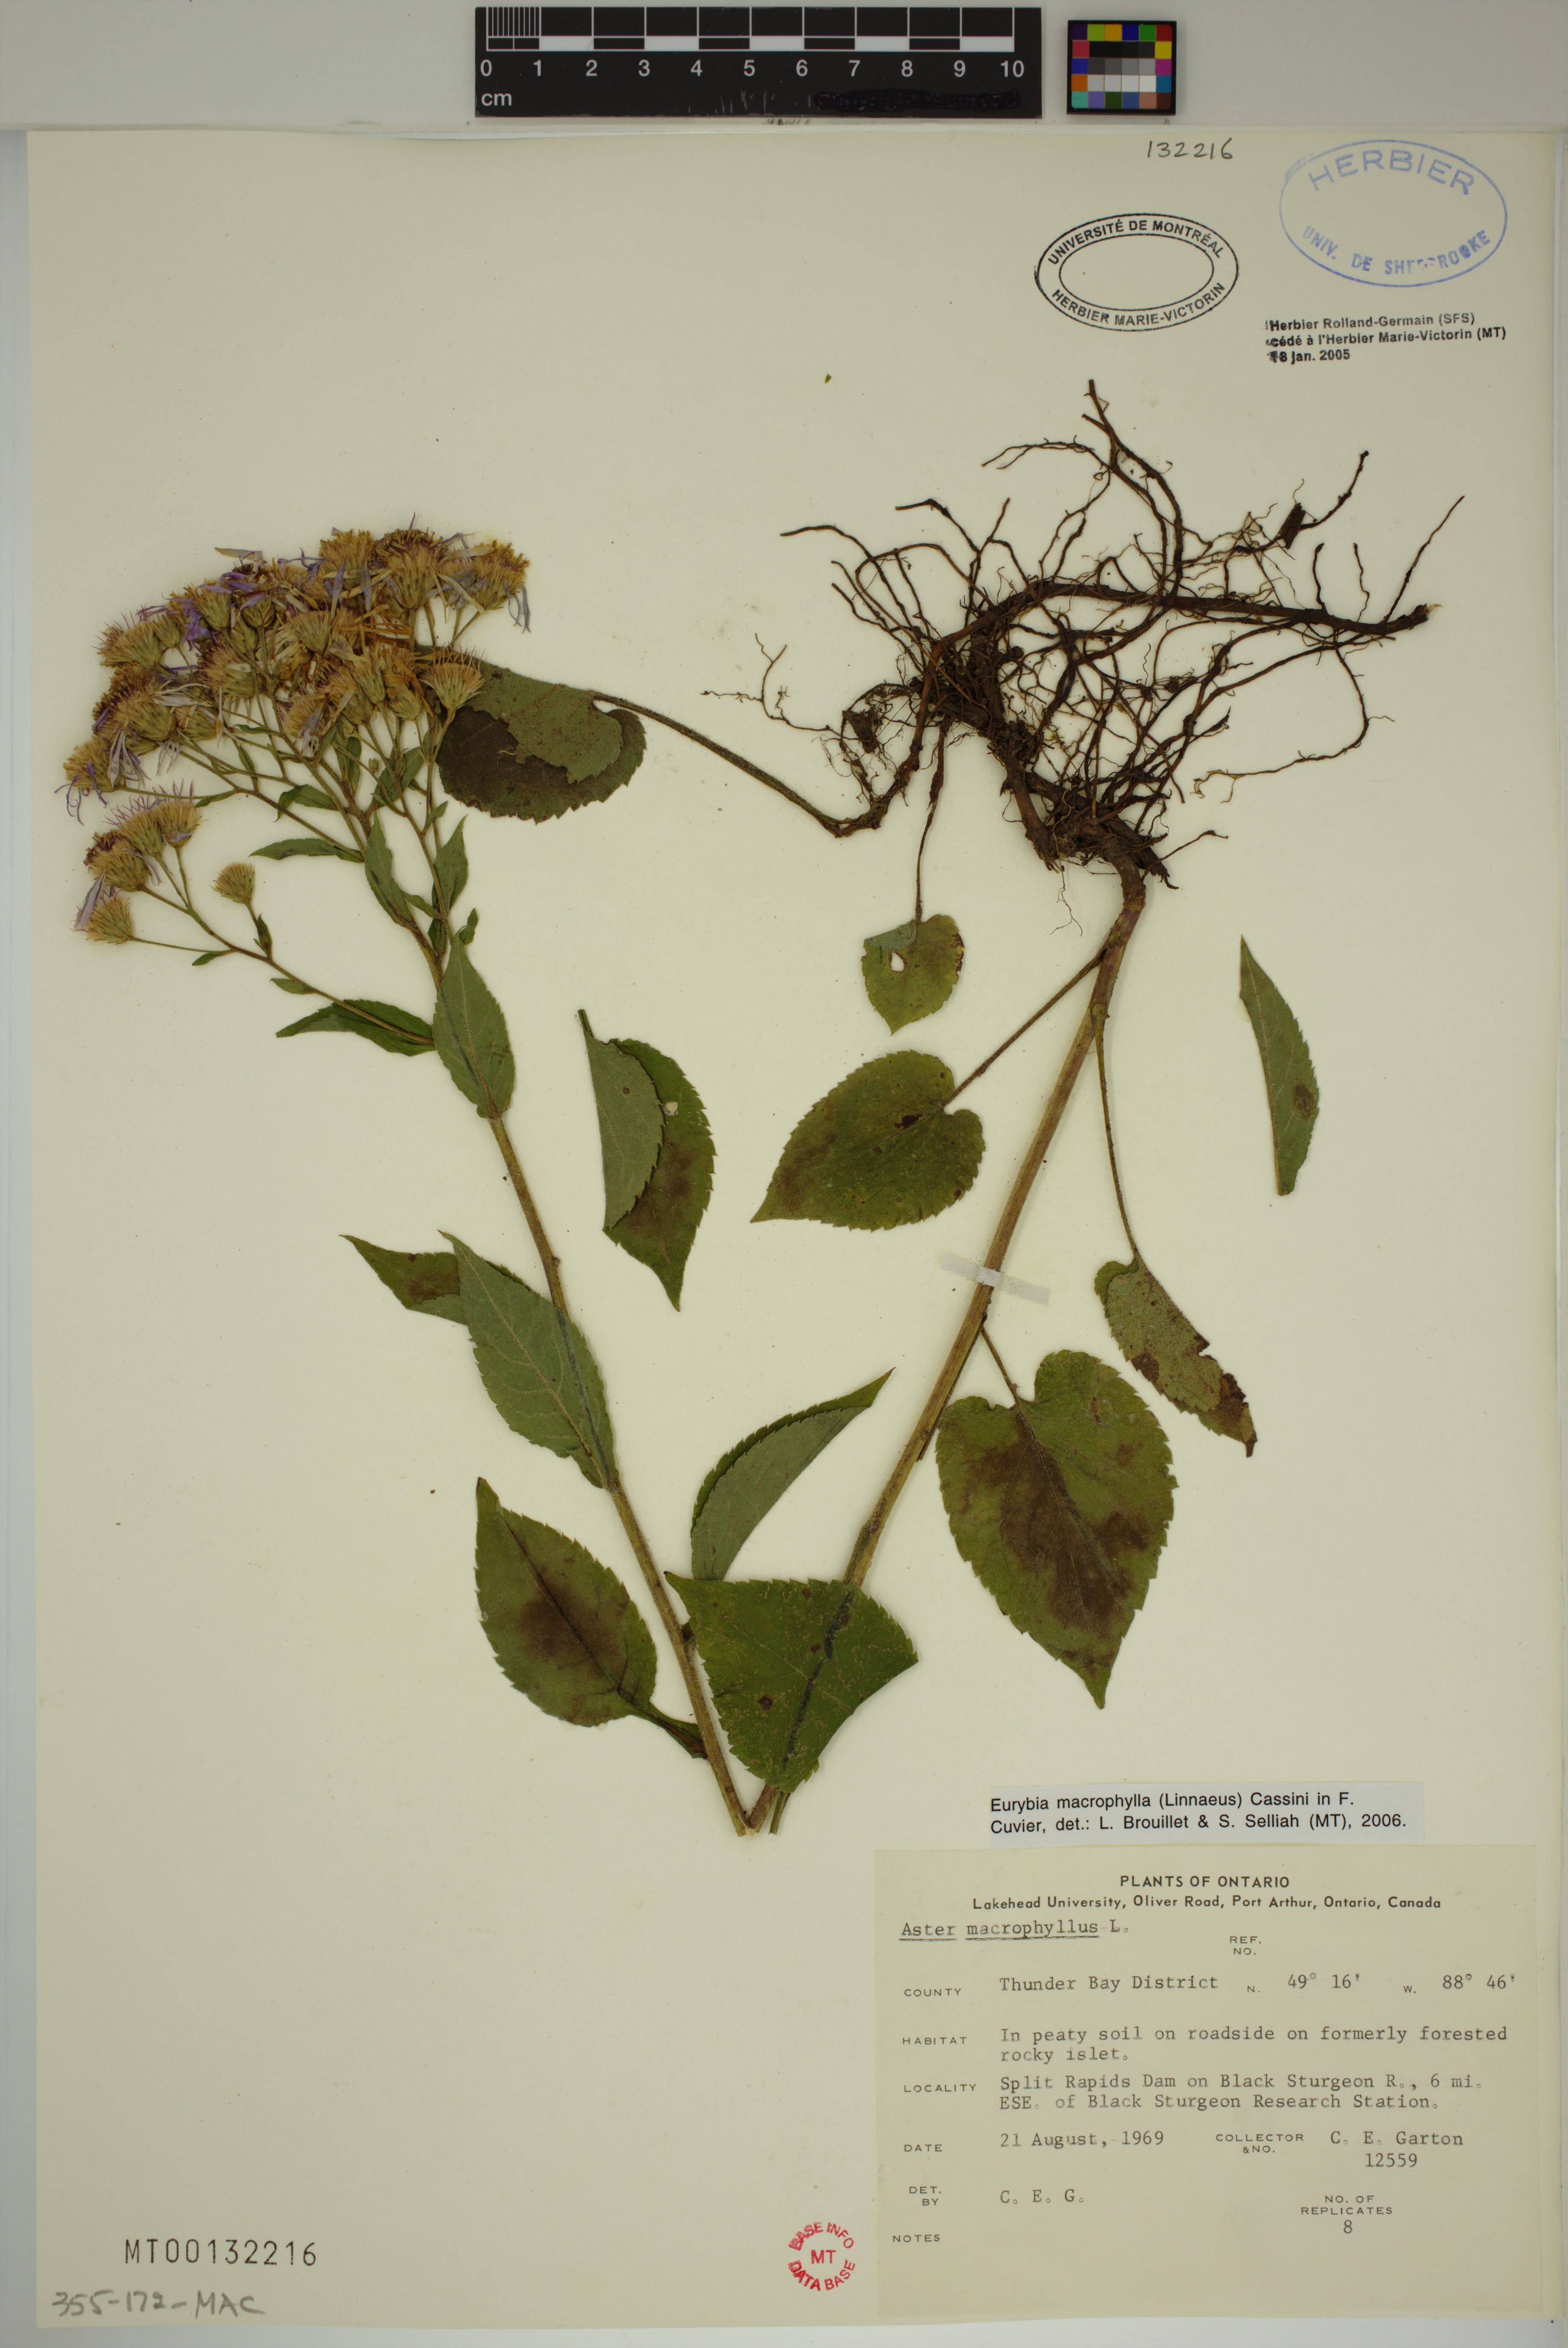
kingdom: Plantae
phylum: Tracheophyta
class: Magnoliopsida
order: Asterales
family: Asteraceae
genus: Eurybia
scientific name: Eurybia macrophylla
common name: Big-leaved aster
